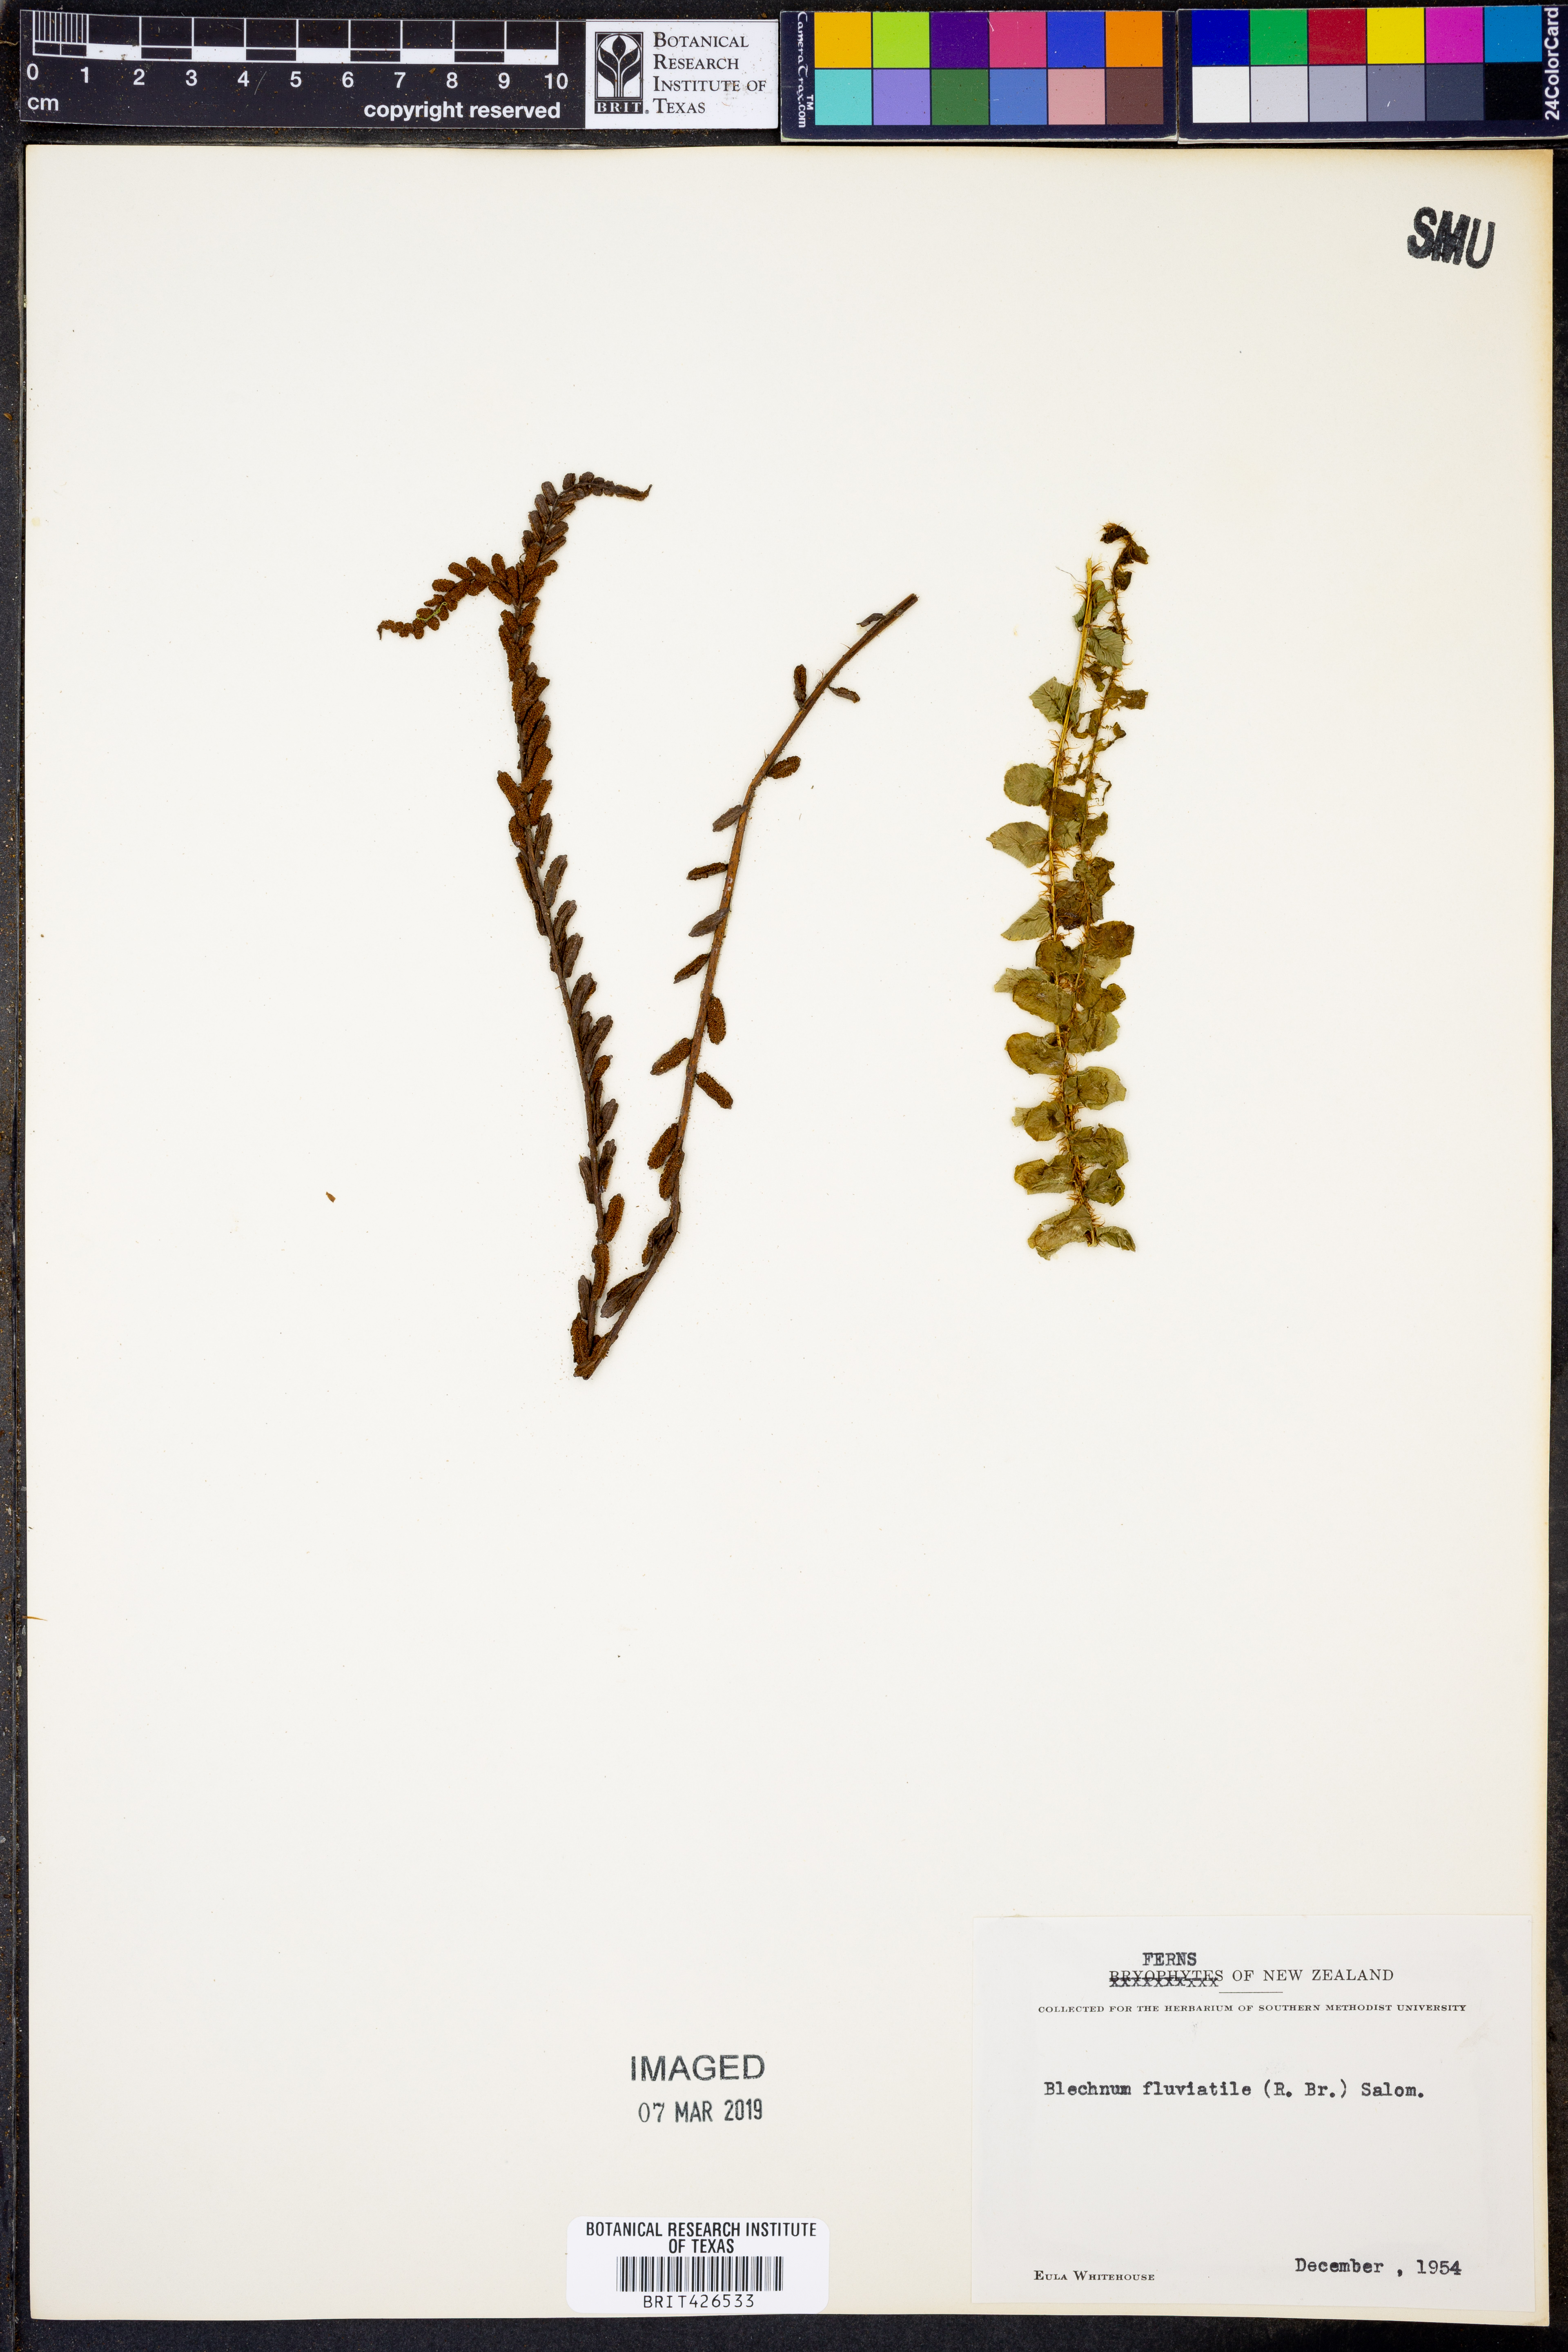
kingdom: Plantae
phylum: Tracheophyta
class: Polypodiopsida
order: Polypodiales
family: Blechnaceae
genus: Cranfillia
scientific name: Cranfillia fluviatilis
